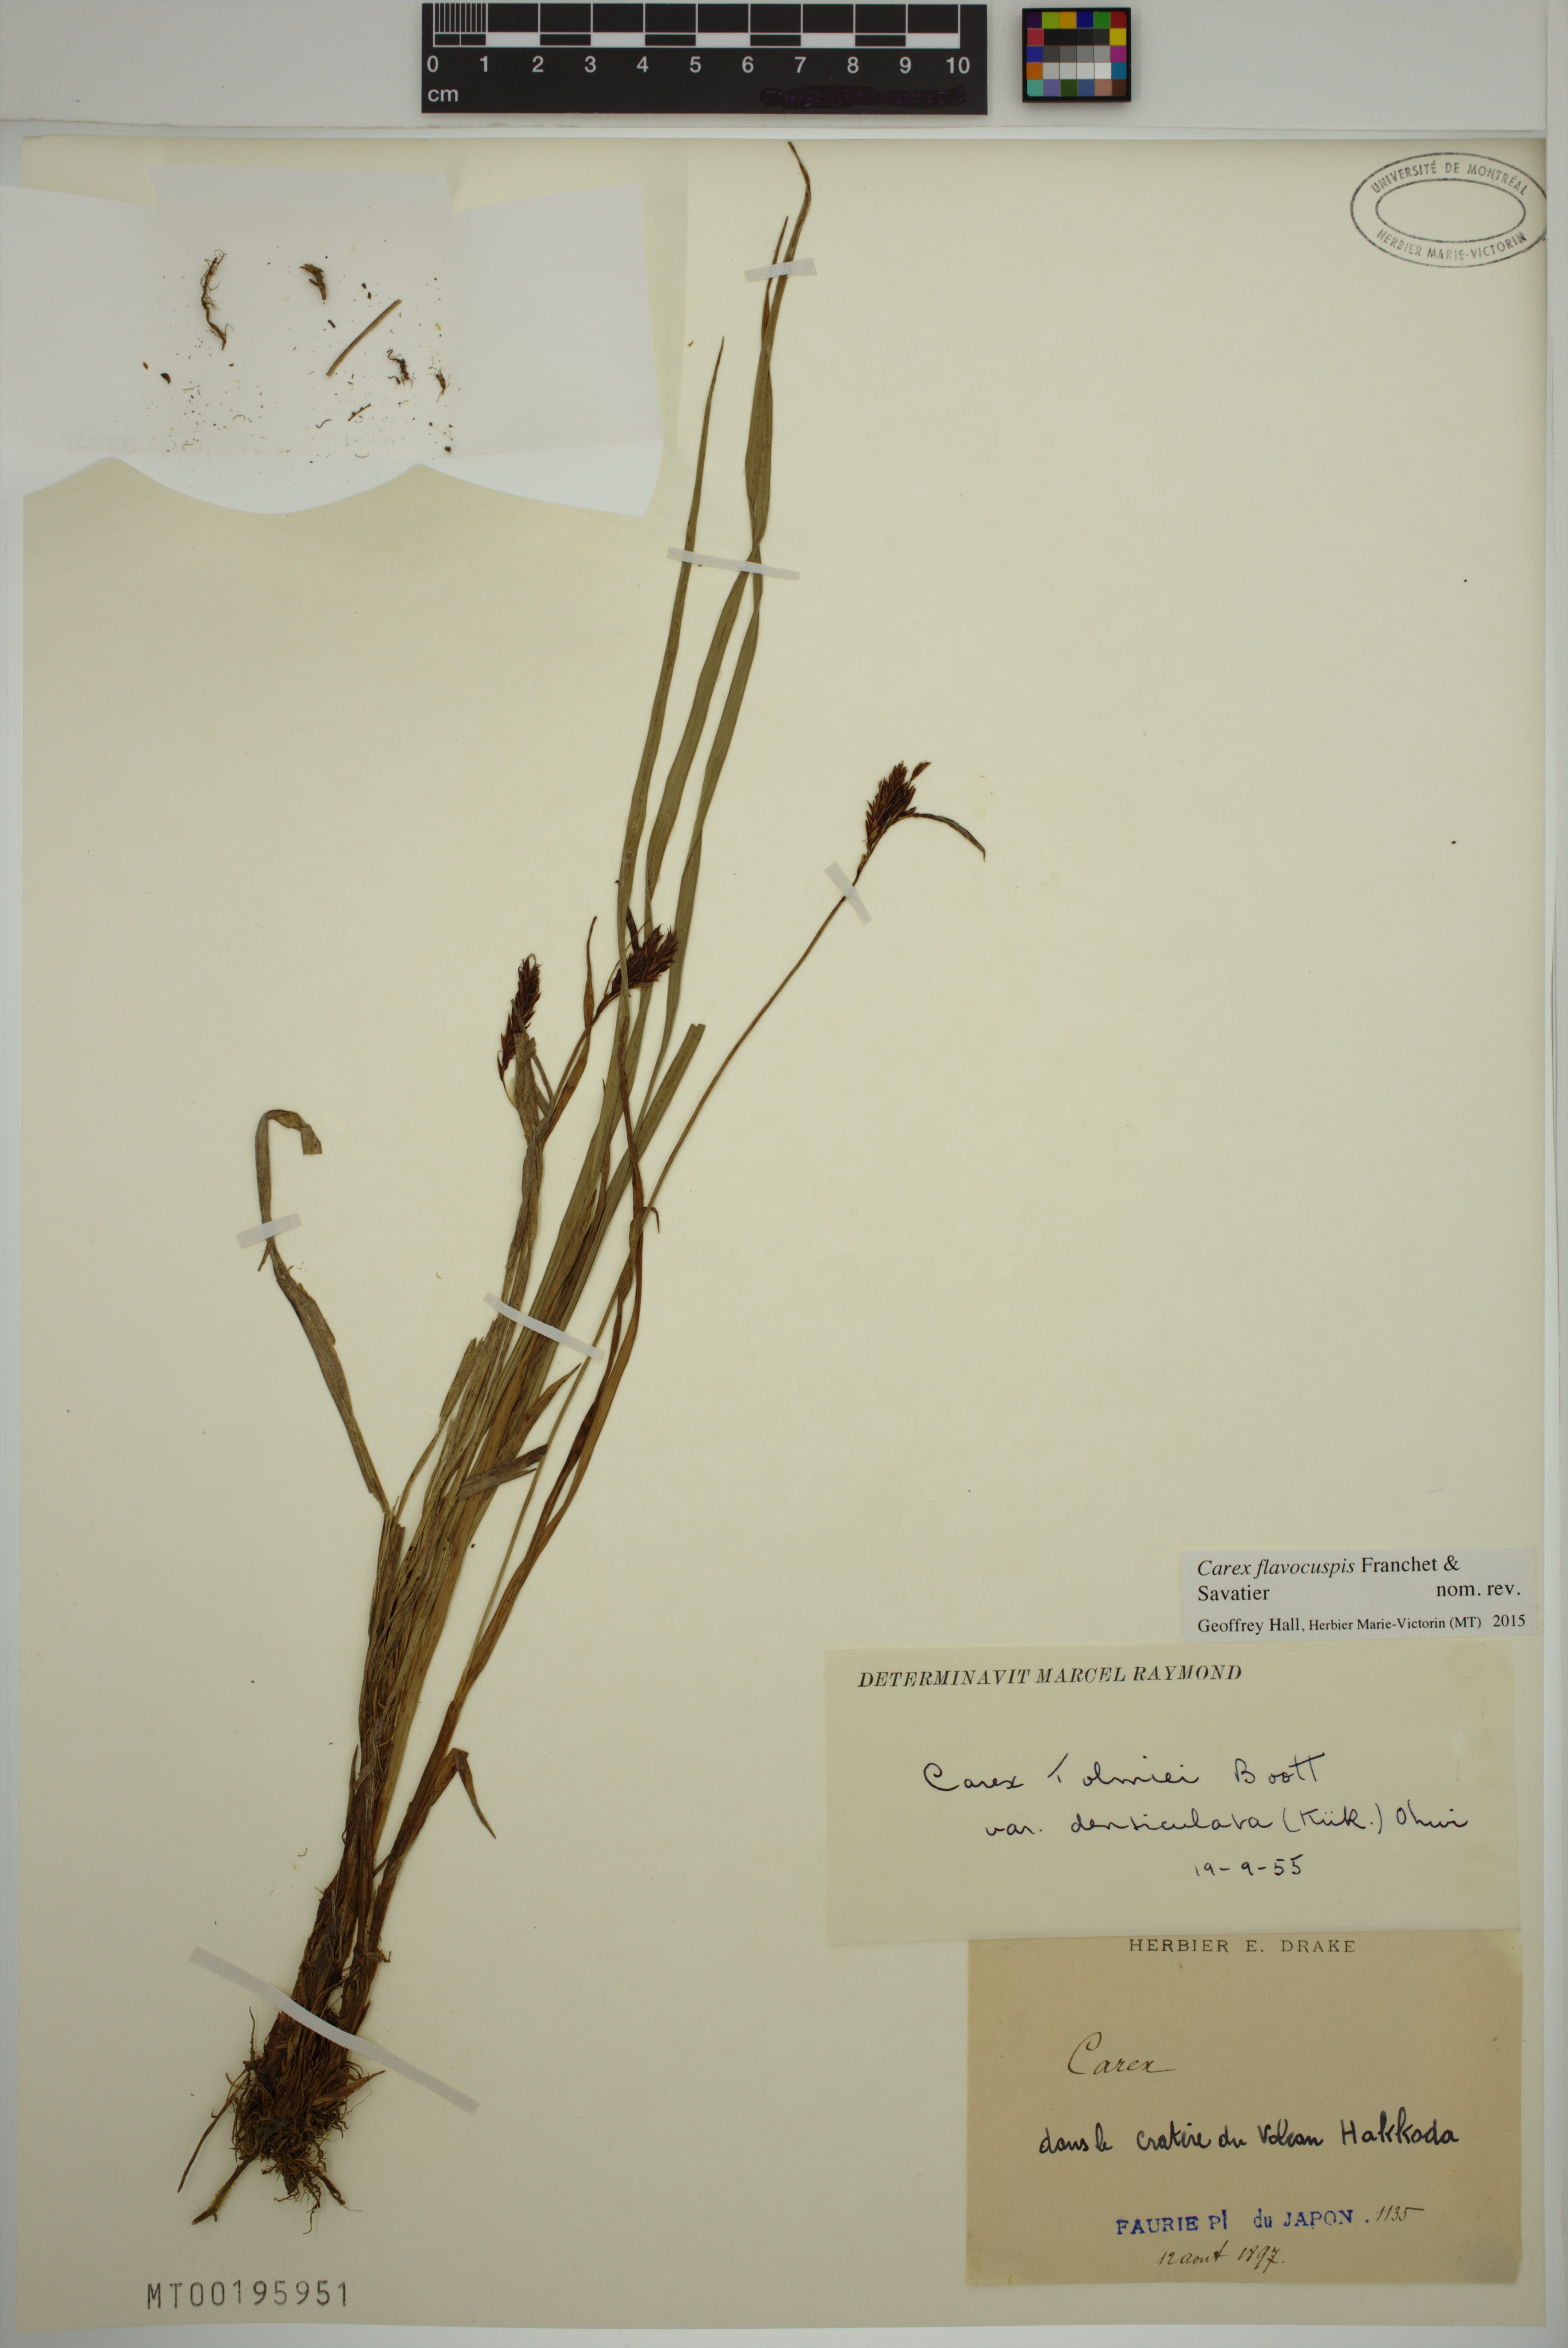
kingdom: Plantae
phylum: Tracheophyta
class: Liliopsida
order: Poales
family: Cyperaceae
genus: Carex
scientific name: Carex flavocuspis
